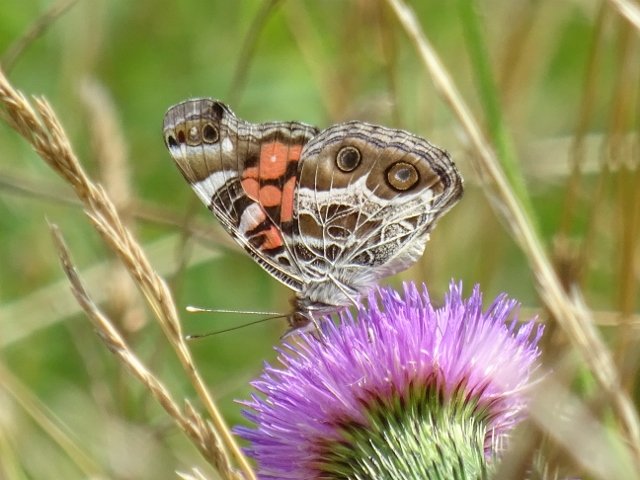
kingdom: Animalia
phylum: Arthropoda
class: Insecta
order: Lepidoptera
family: Nymphalidae
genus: Vanessa
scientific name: Vanessa virginiensis
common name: American Lady
